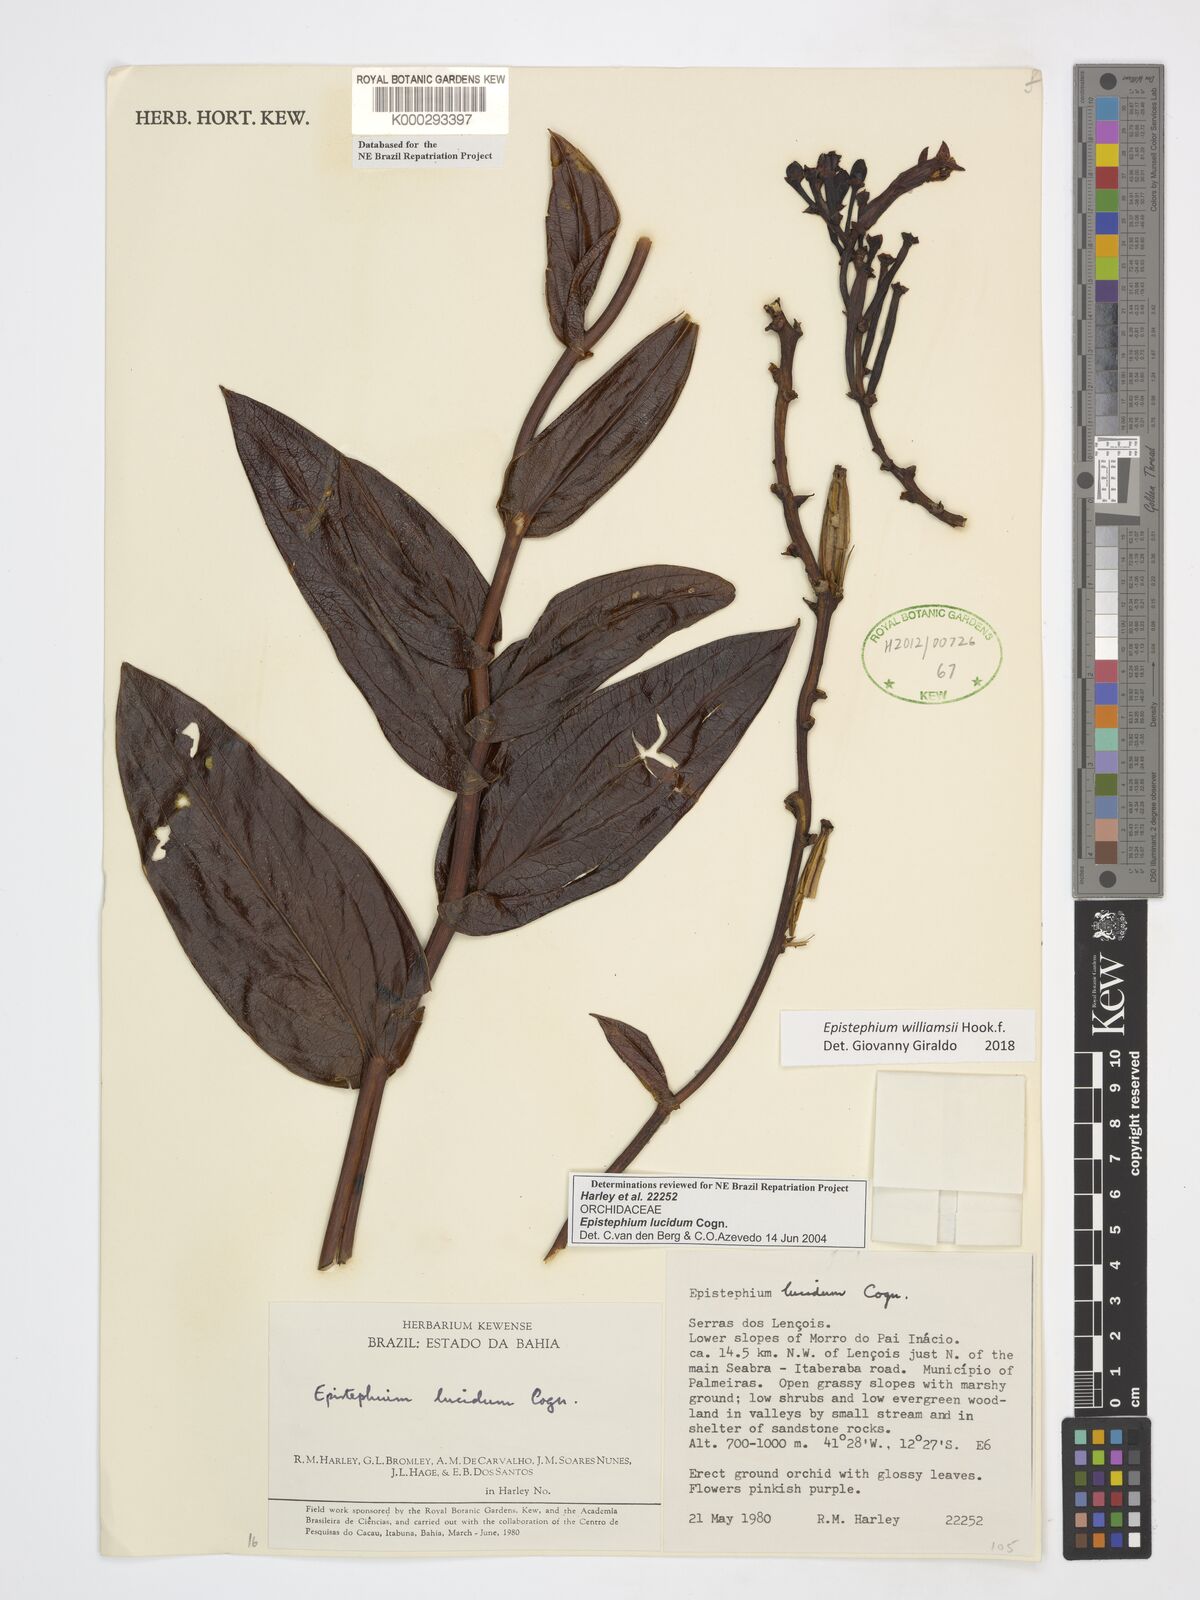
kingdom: Plantae
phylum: Tracheophyta
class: Liliopsida
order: Asparagales
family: Orchidaceae
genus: Epistephium
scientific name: Epistephium williamsii
